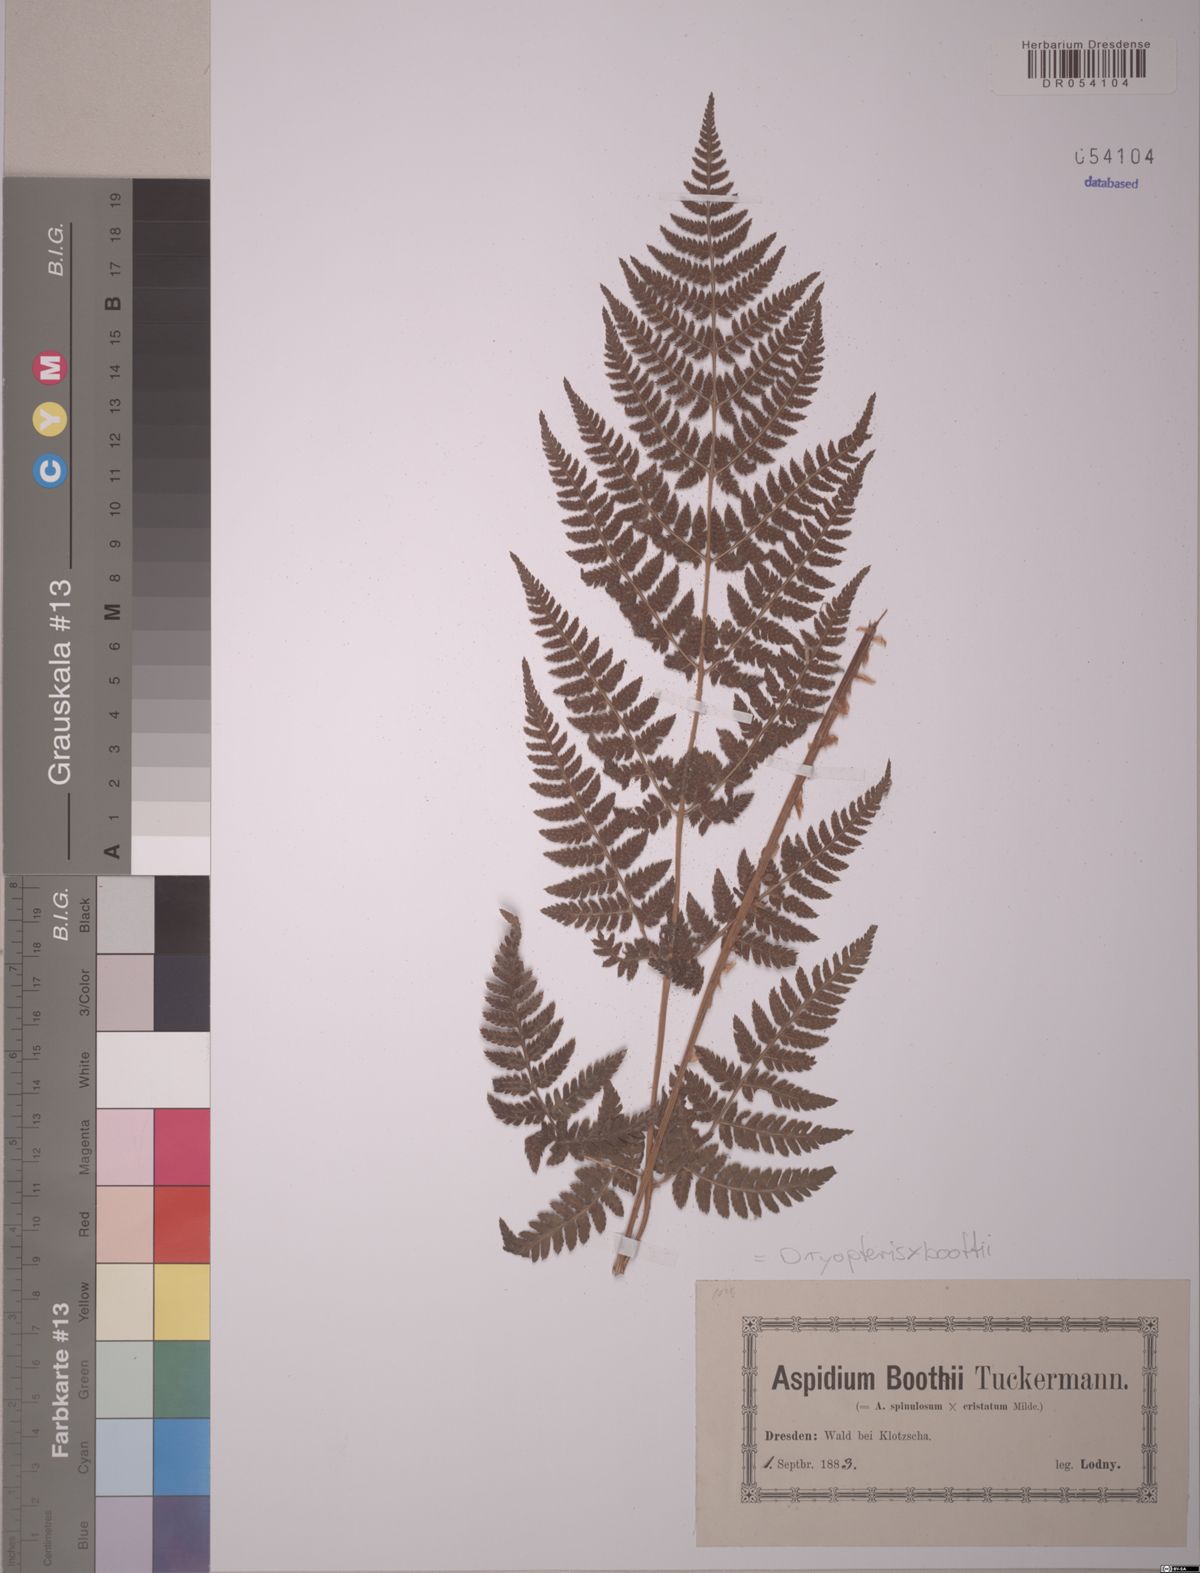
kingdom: Plantae
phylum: Tracheophyta
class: Polypodiopsida
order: Polypodiales
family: Dryopteridaceae
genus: Dryopteris
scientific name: Dryopteris boottii
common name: Boott's fern
